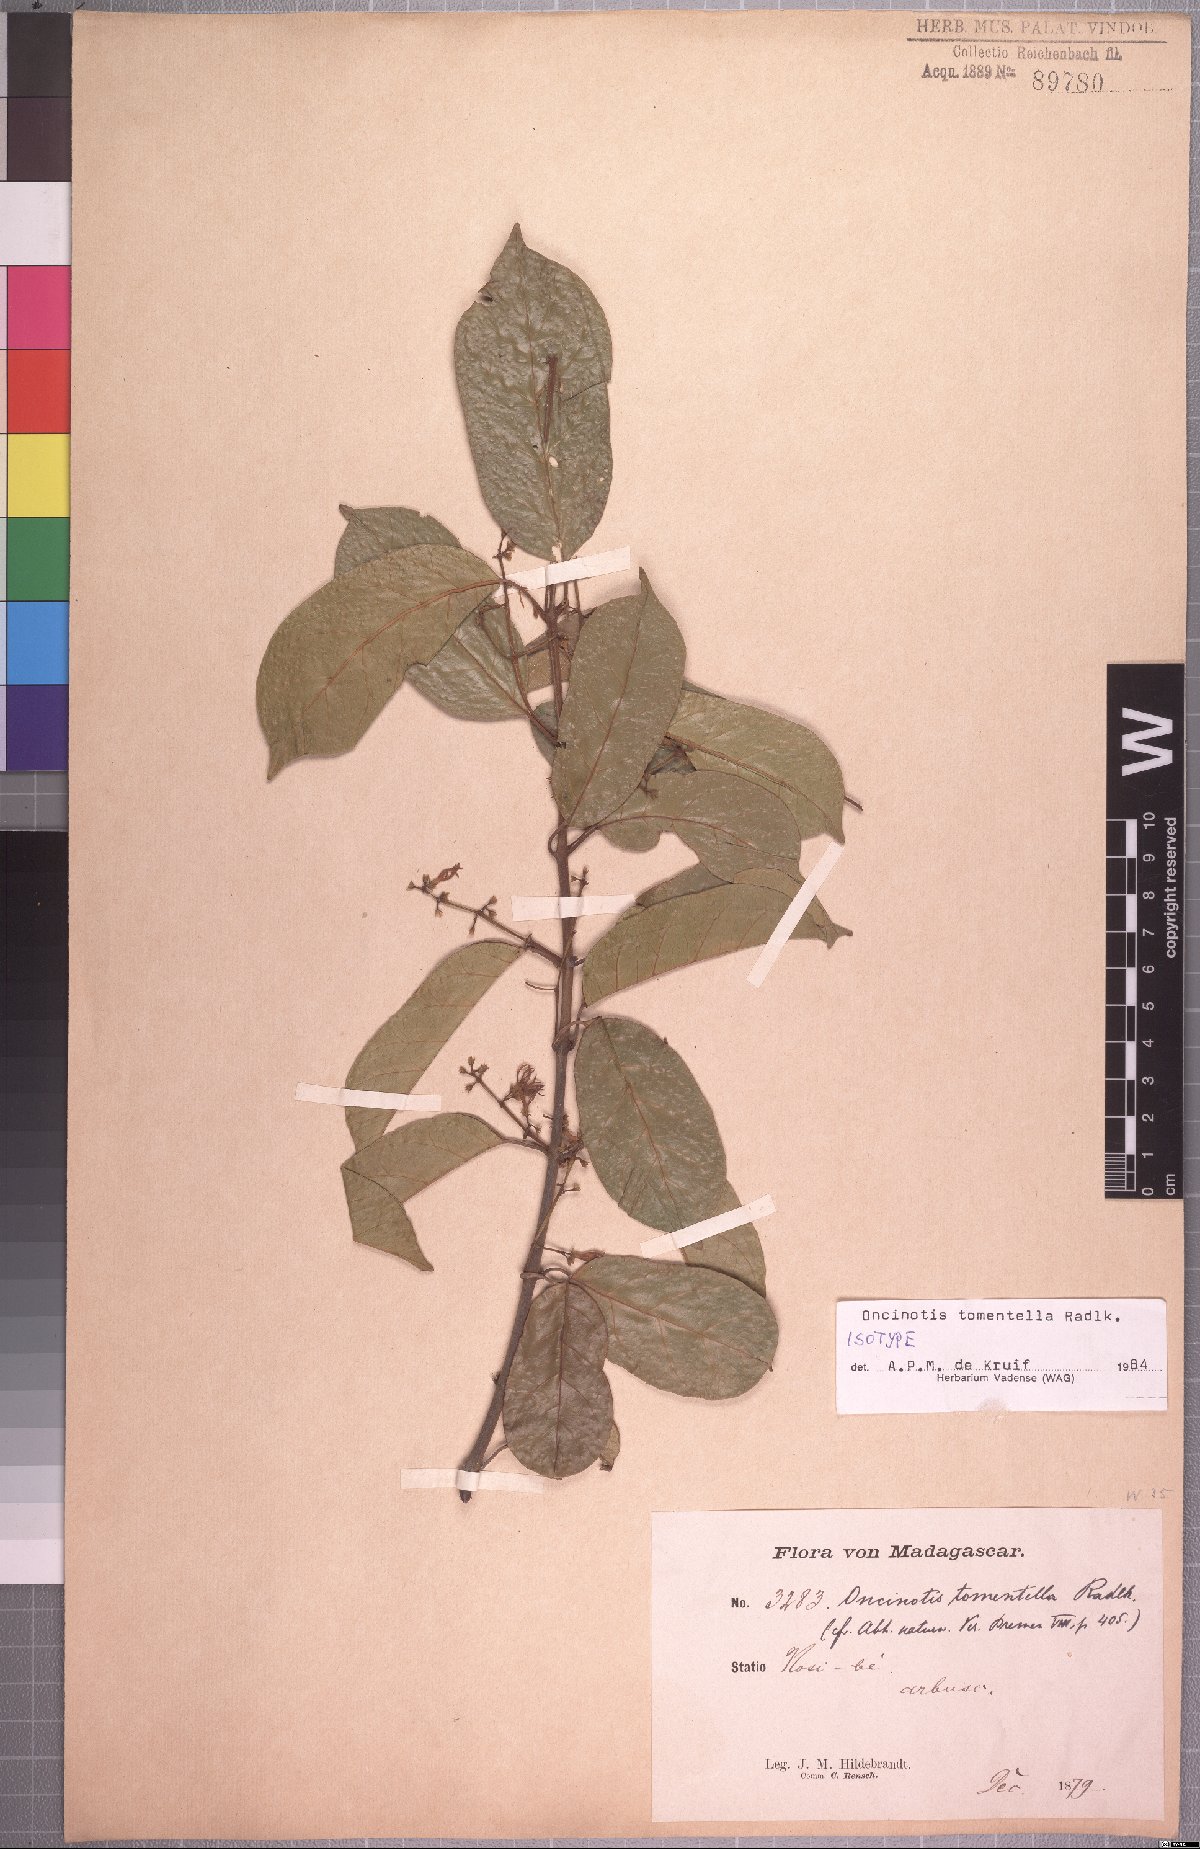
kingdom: Plantae
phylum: Tracheophyta
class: Magnoliopsida
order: Gentianales
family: Apocynaceae
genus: Oncinotis
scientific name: Oncinotis tomentella
